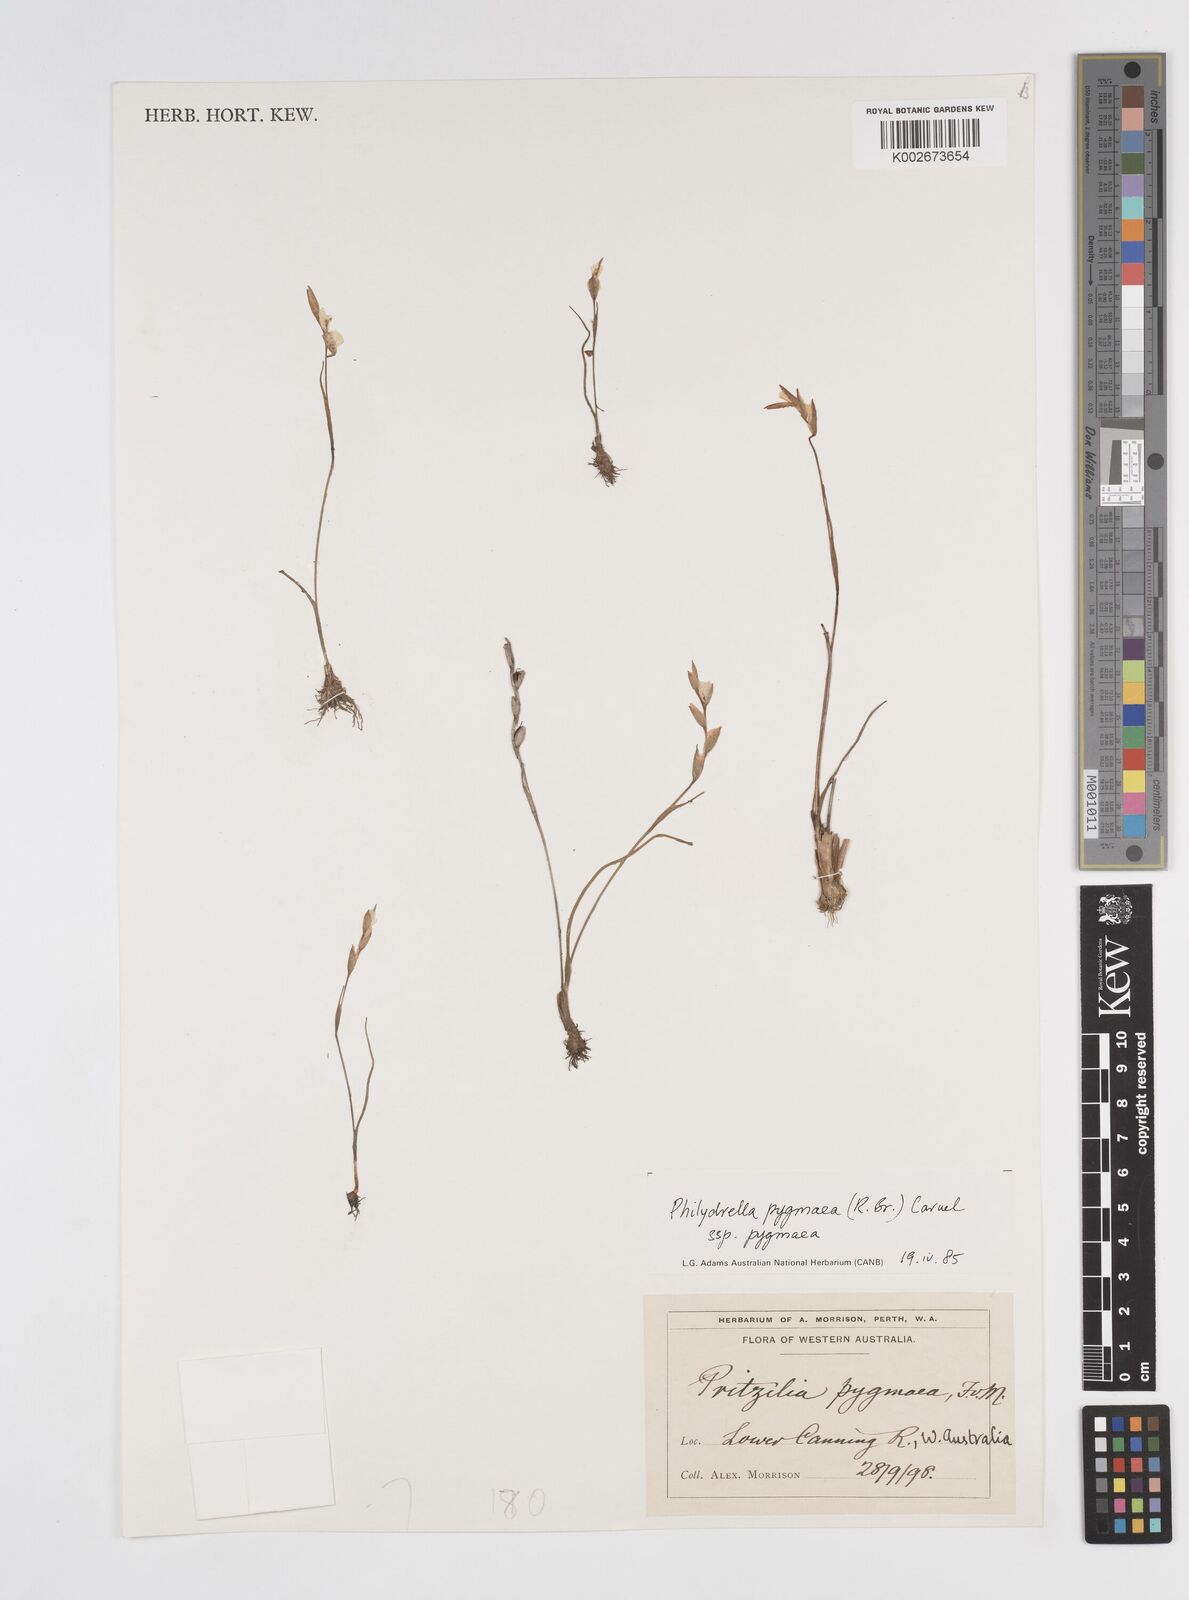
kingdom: Plantae
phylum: Tracheophyta
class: Liliopsida
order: Commelinales
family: Philydraceae
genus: Philydrella
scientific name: Philydrella pygmaea
